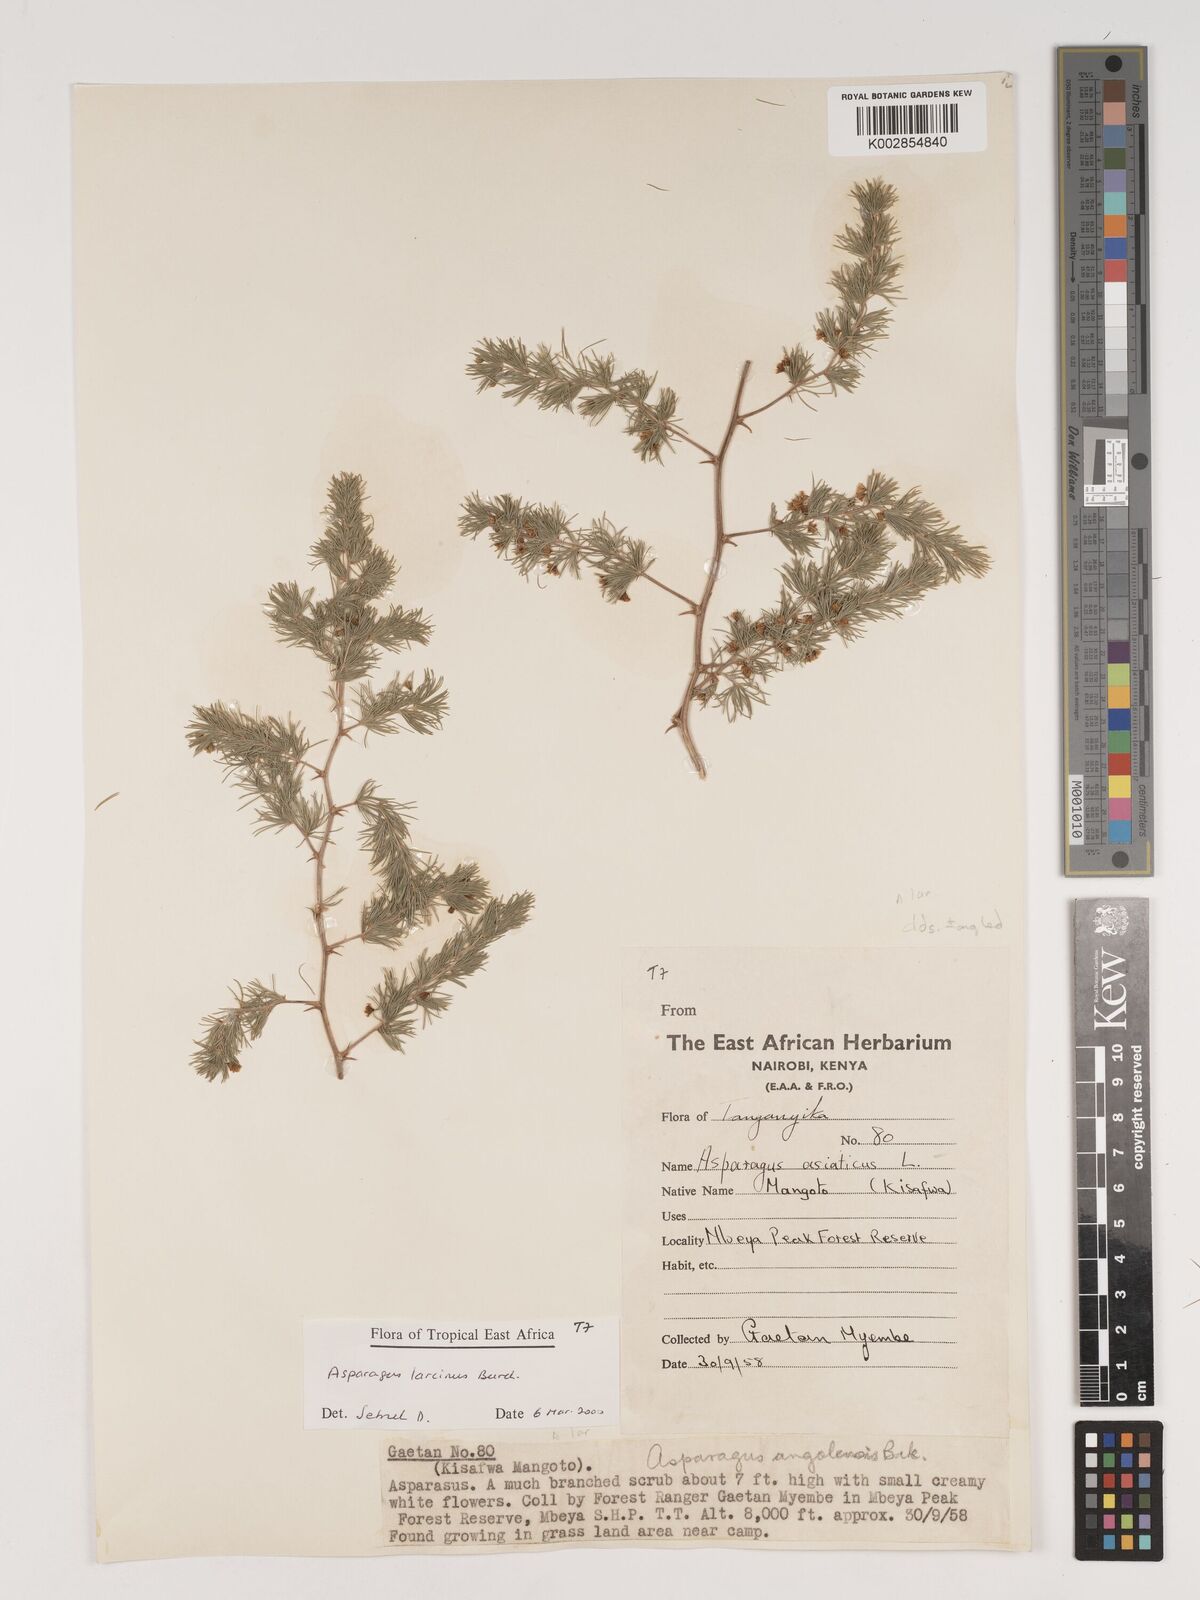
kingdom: Plantae
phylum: Tracheophyta
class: Liliopsida
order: Asparagales
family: Asparagaceae
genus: Asparagus
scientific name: Asparagus laricinus
